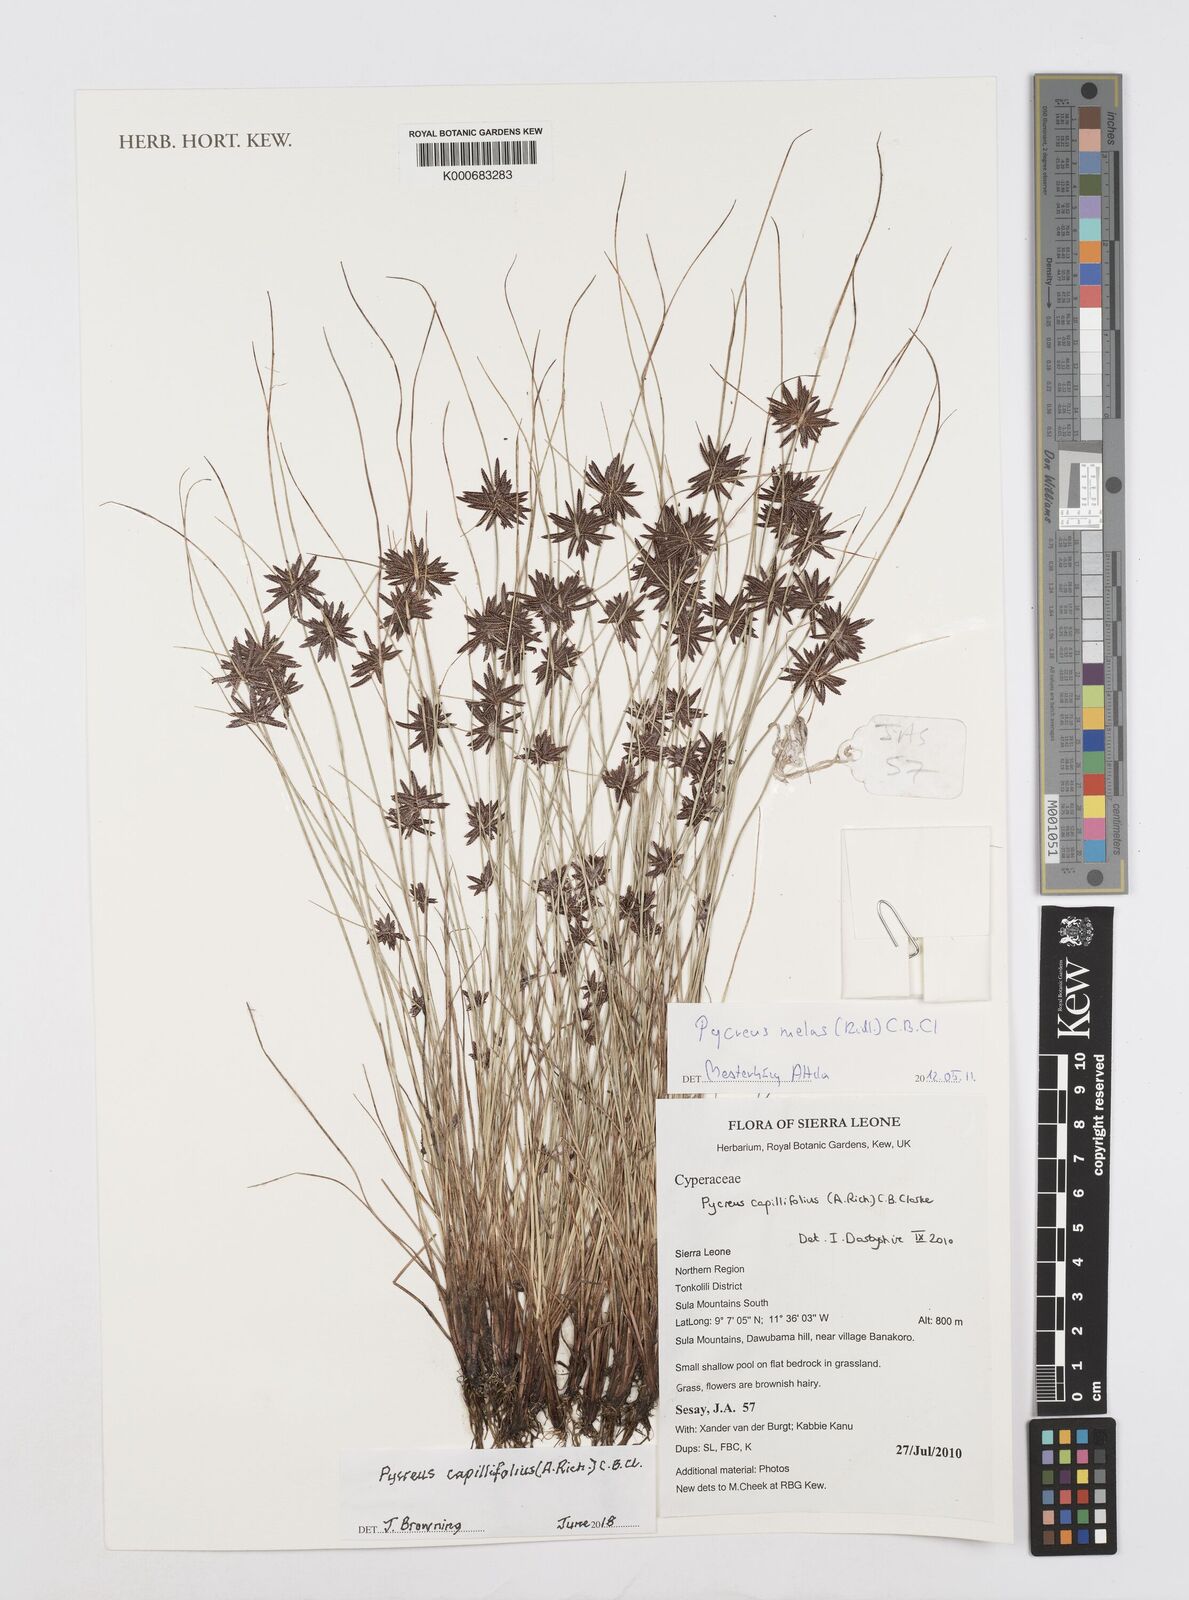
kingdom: Plantae
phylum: Tracheophyta
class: Liliopsida
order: Poales
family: Cyperaceae
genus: Cyperus
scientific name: Cyperus capillifolius
